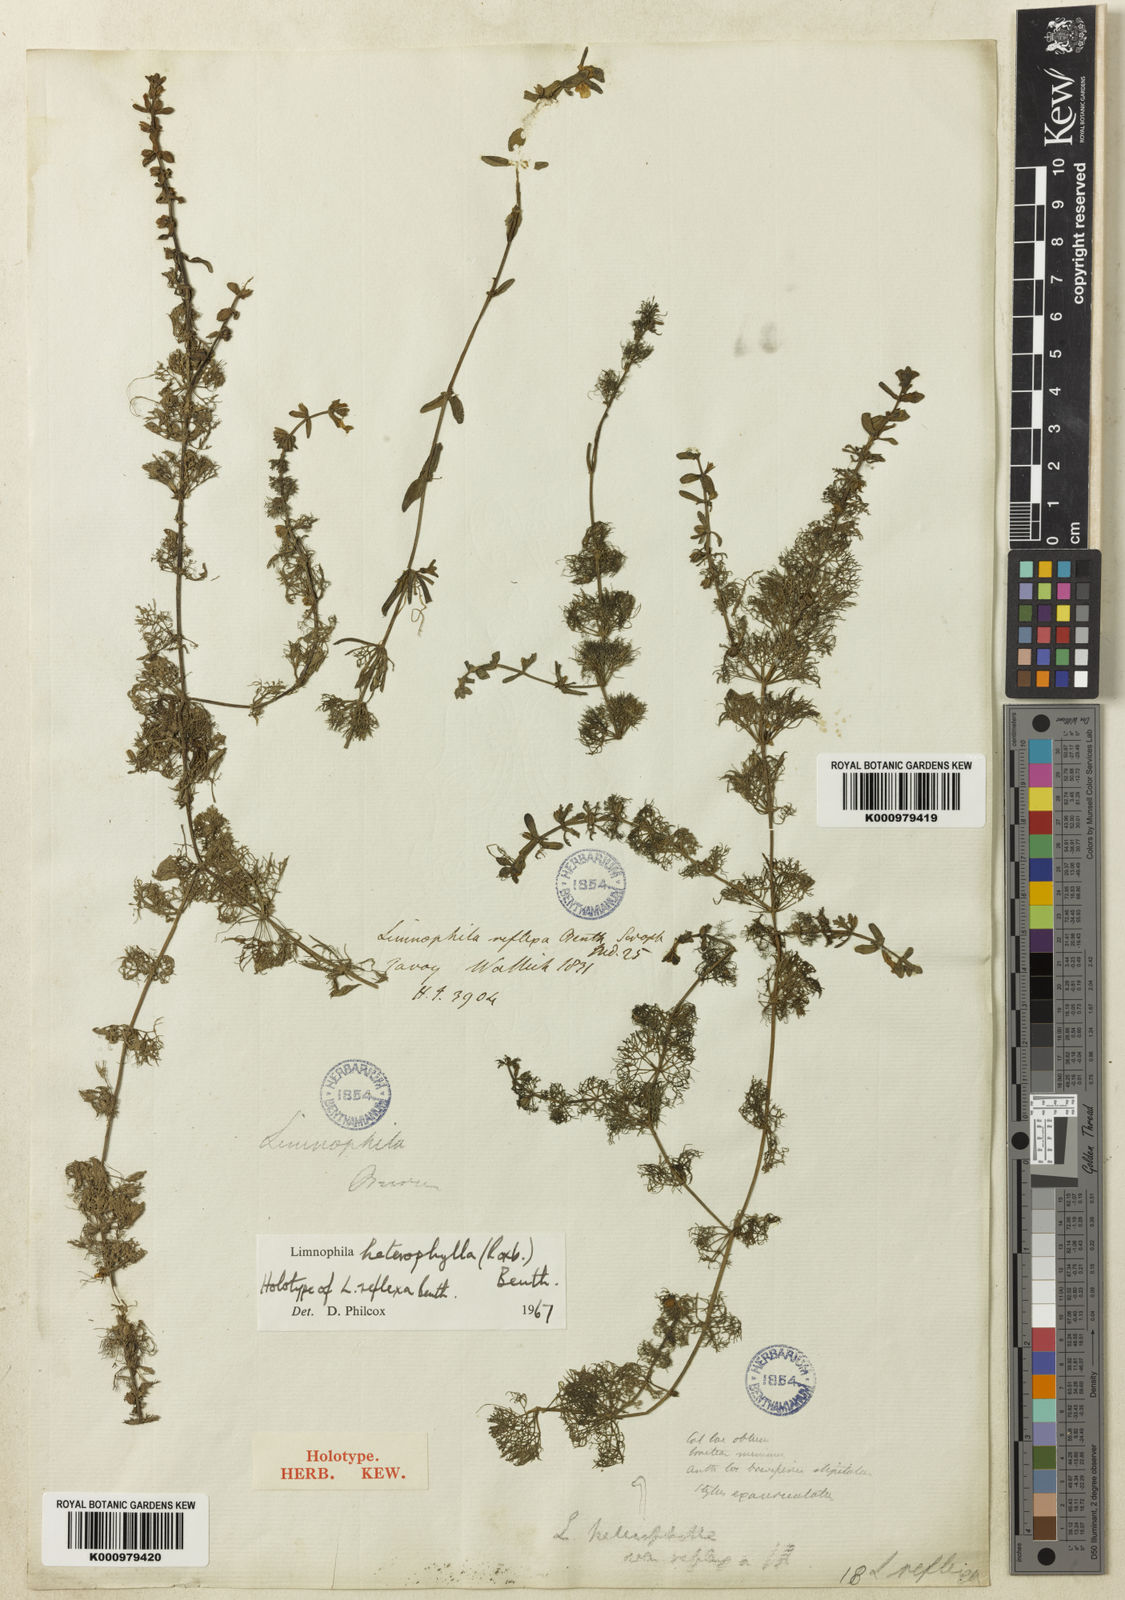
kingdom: Plantae
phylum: Tracheophyta
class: Magnoliopsida
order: Lamiales
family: Plantaginaceae
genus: Limnophila
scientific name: Limnophila heterophylla
